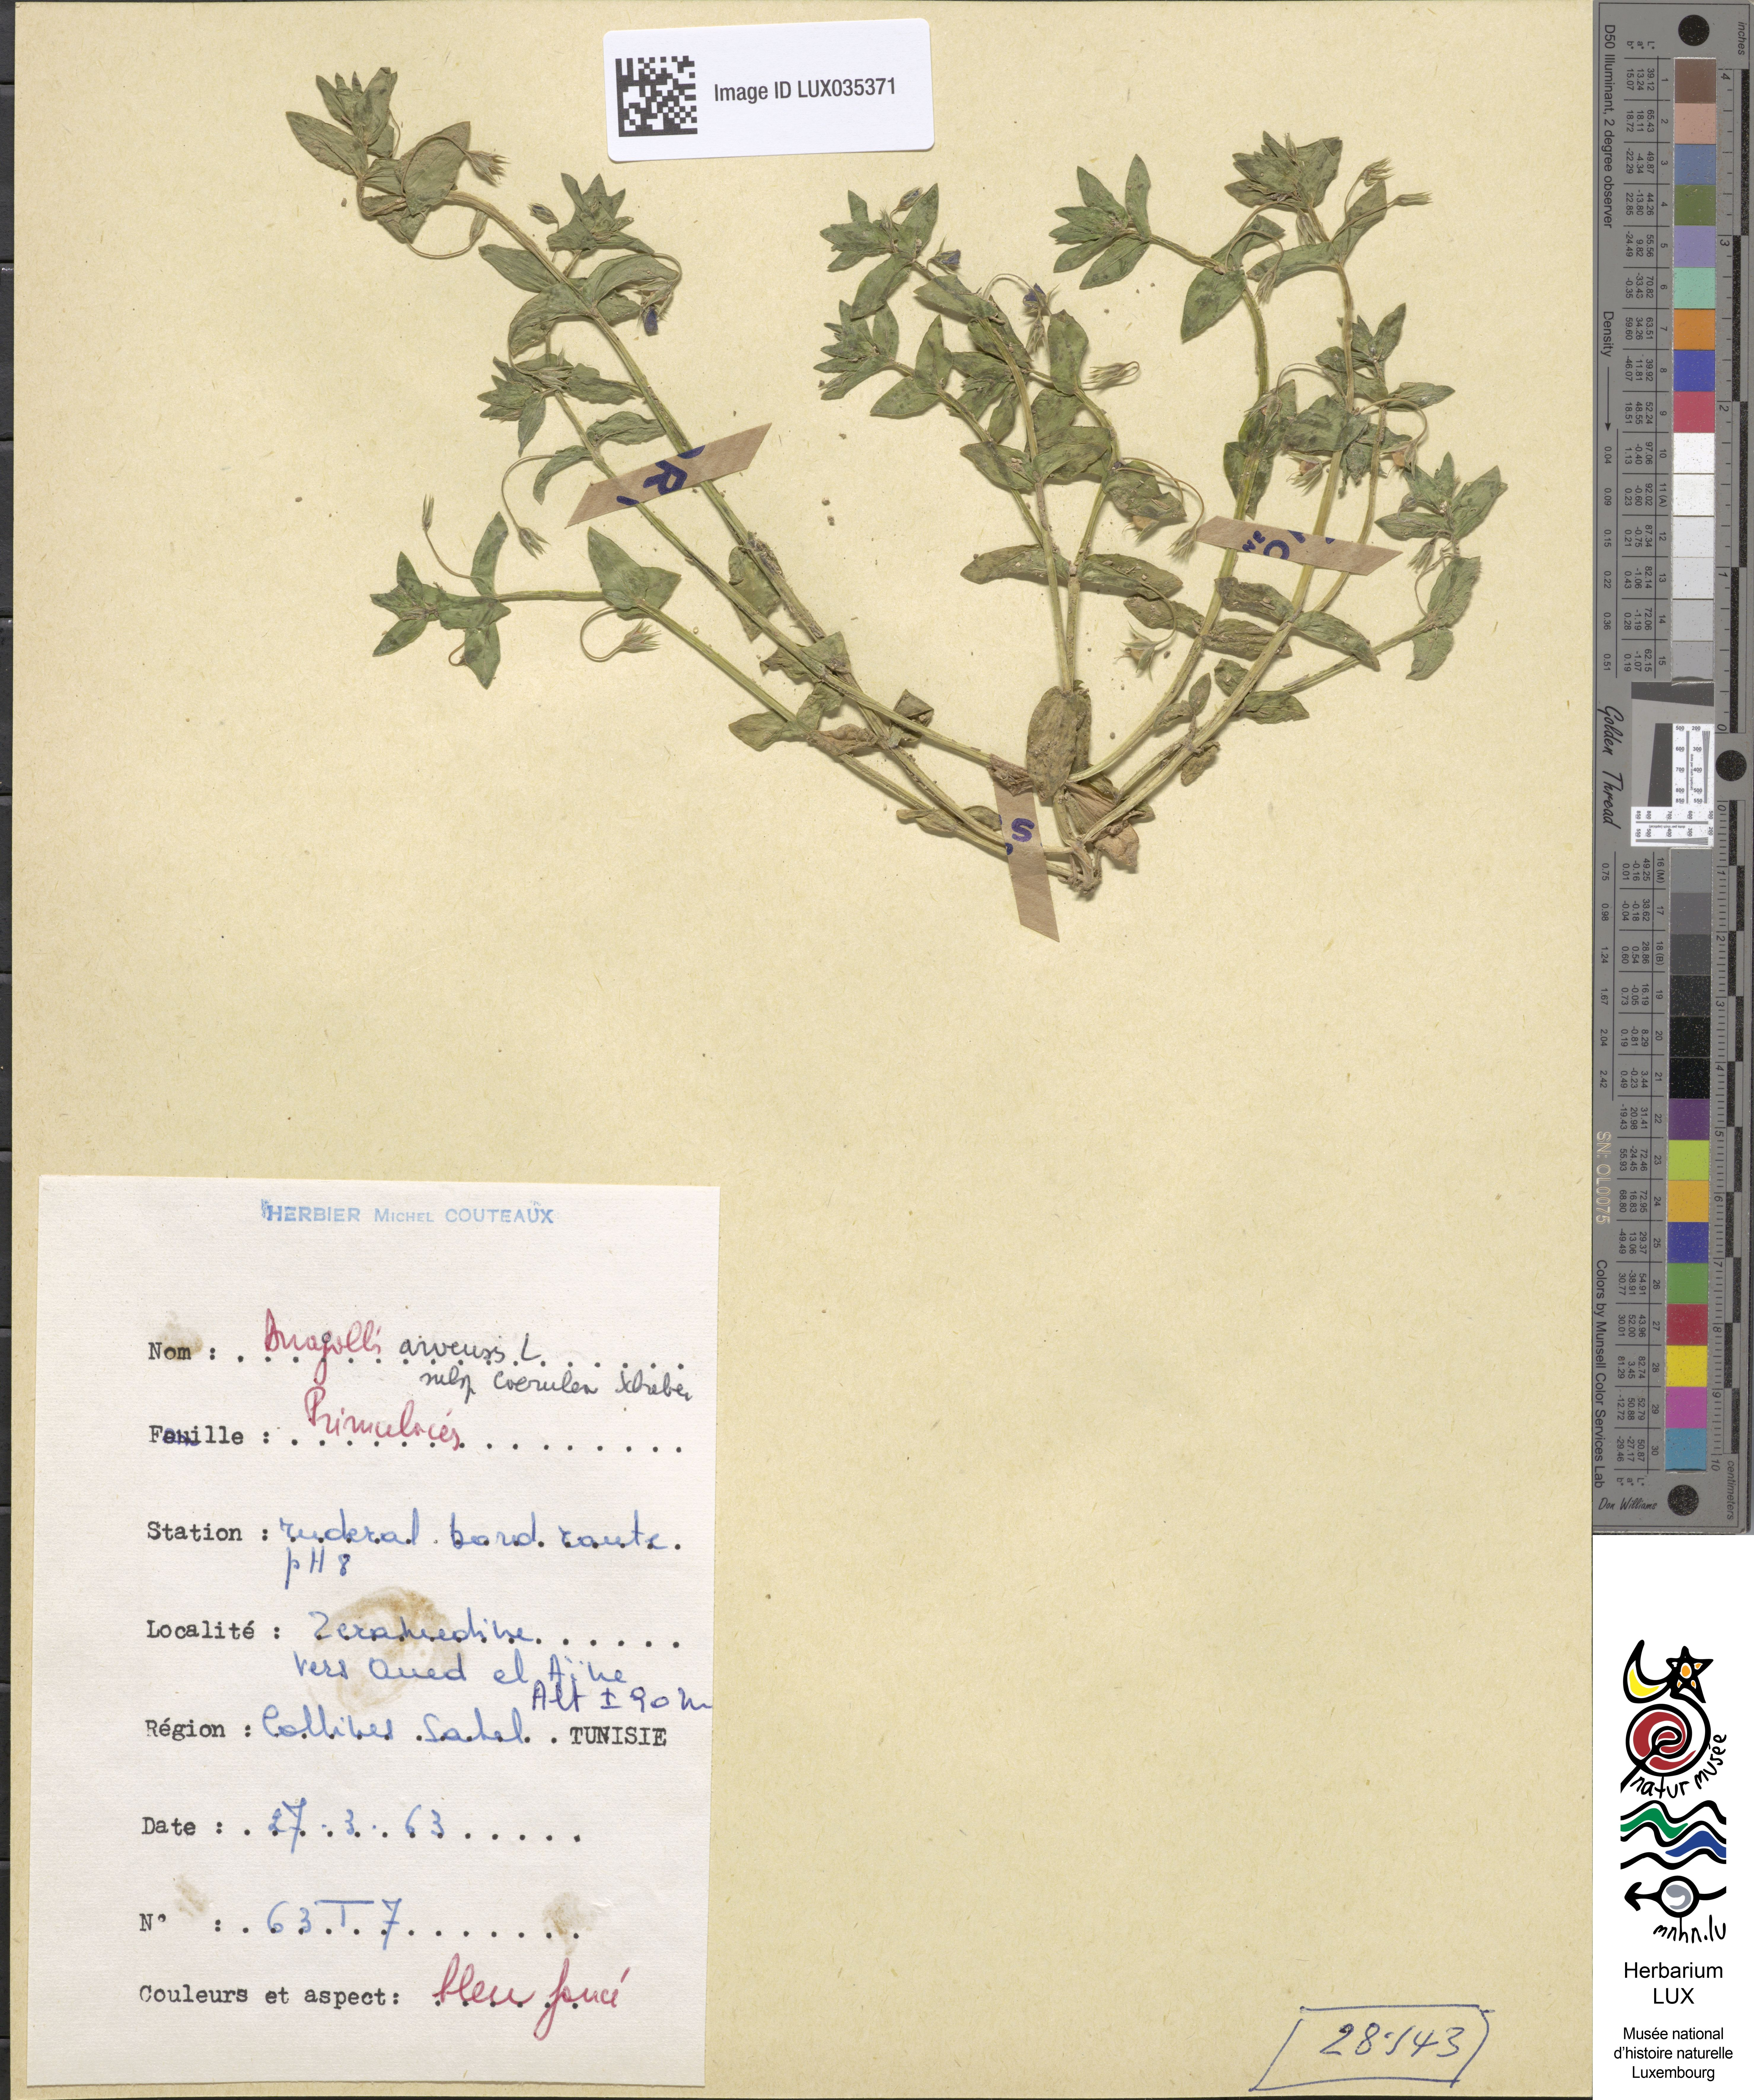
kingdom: Plantae
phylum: Tracheophyta
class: Magnoliopsida
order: Ericales
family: Primulaceae
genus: Lysimachia
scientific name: Lysimachia foemina
